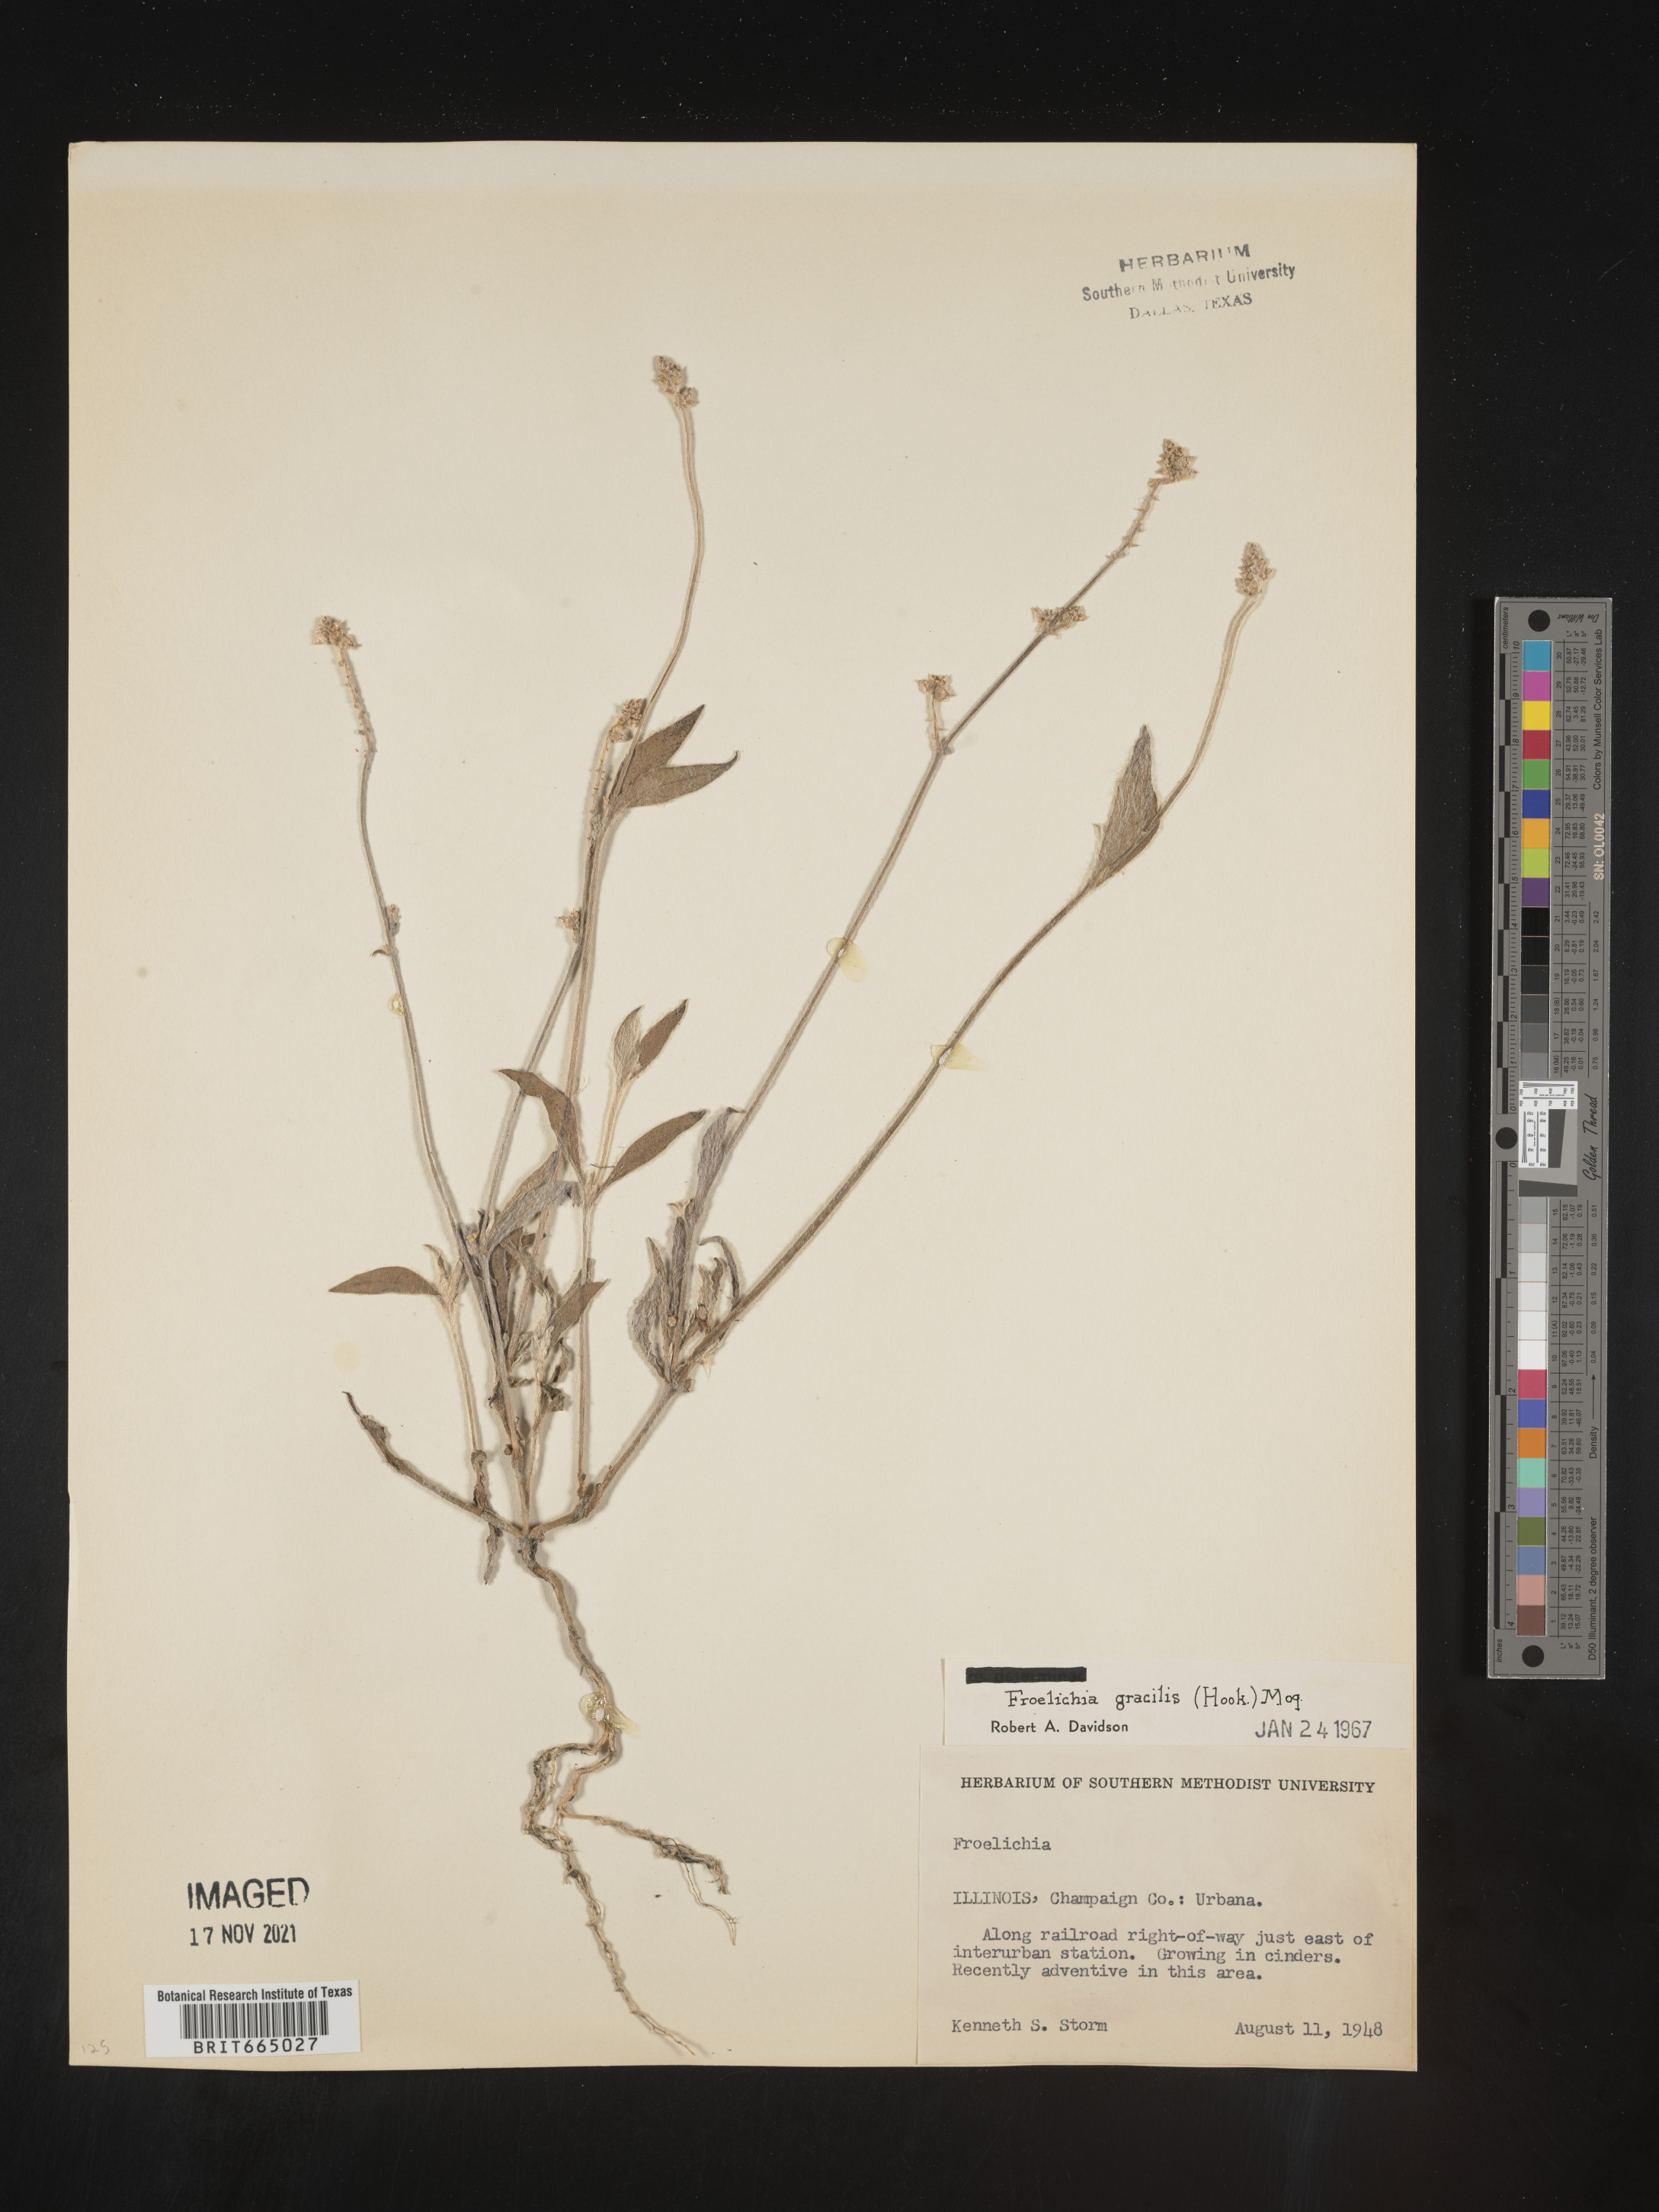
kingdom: Plantae
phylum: Tracheophyta
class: Magnoliopsida
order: Caryophyllales
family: Amaranthaceae
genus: Froelichia
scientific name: Froelichia gracilis
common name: Slender cottonweed
